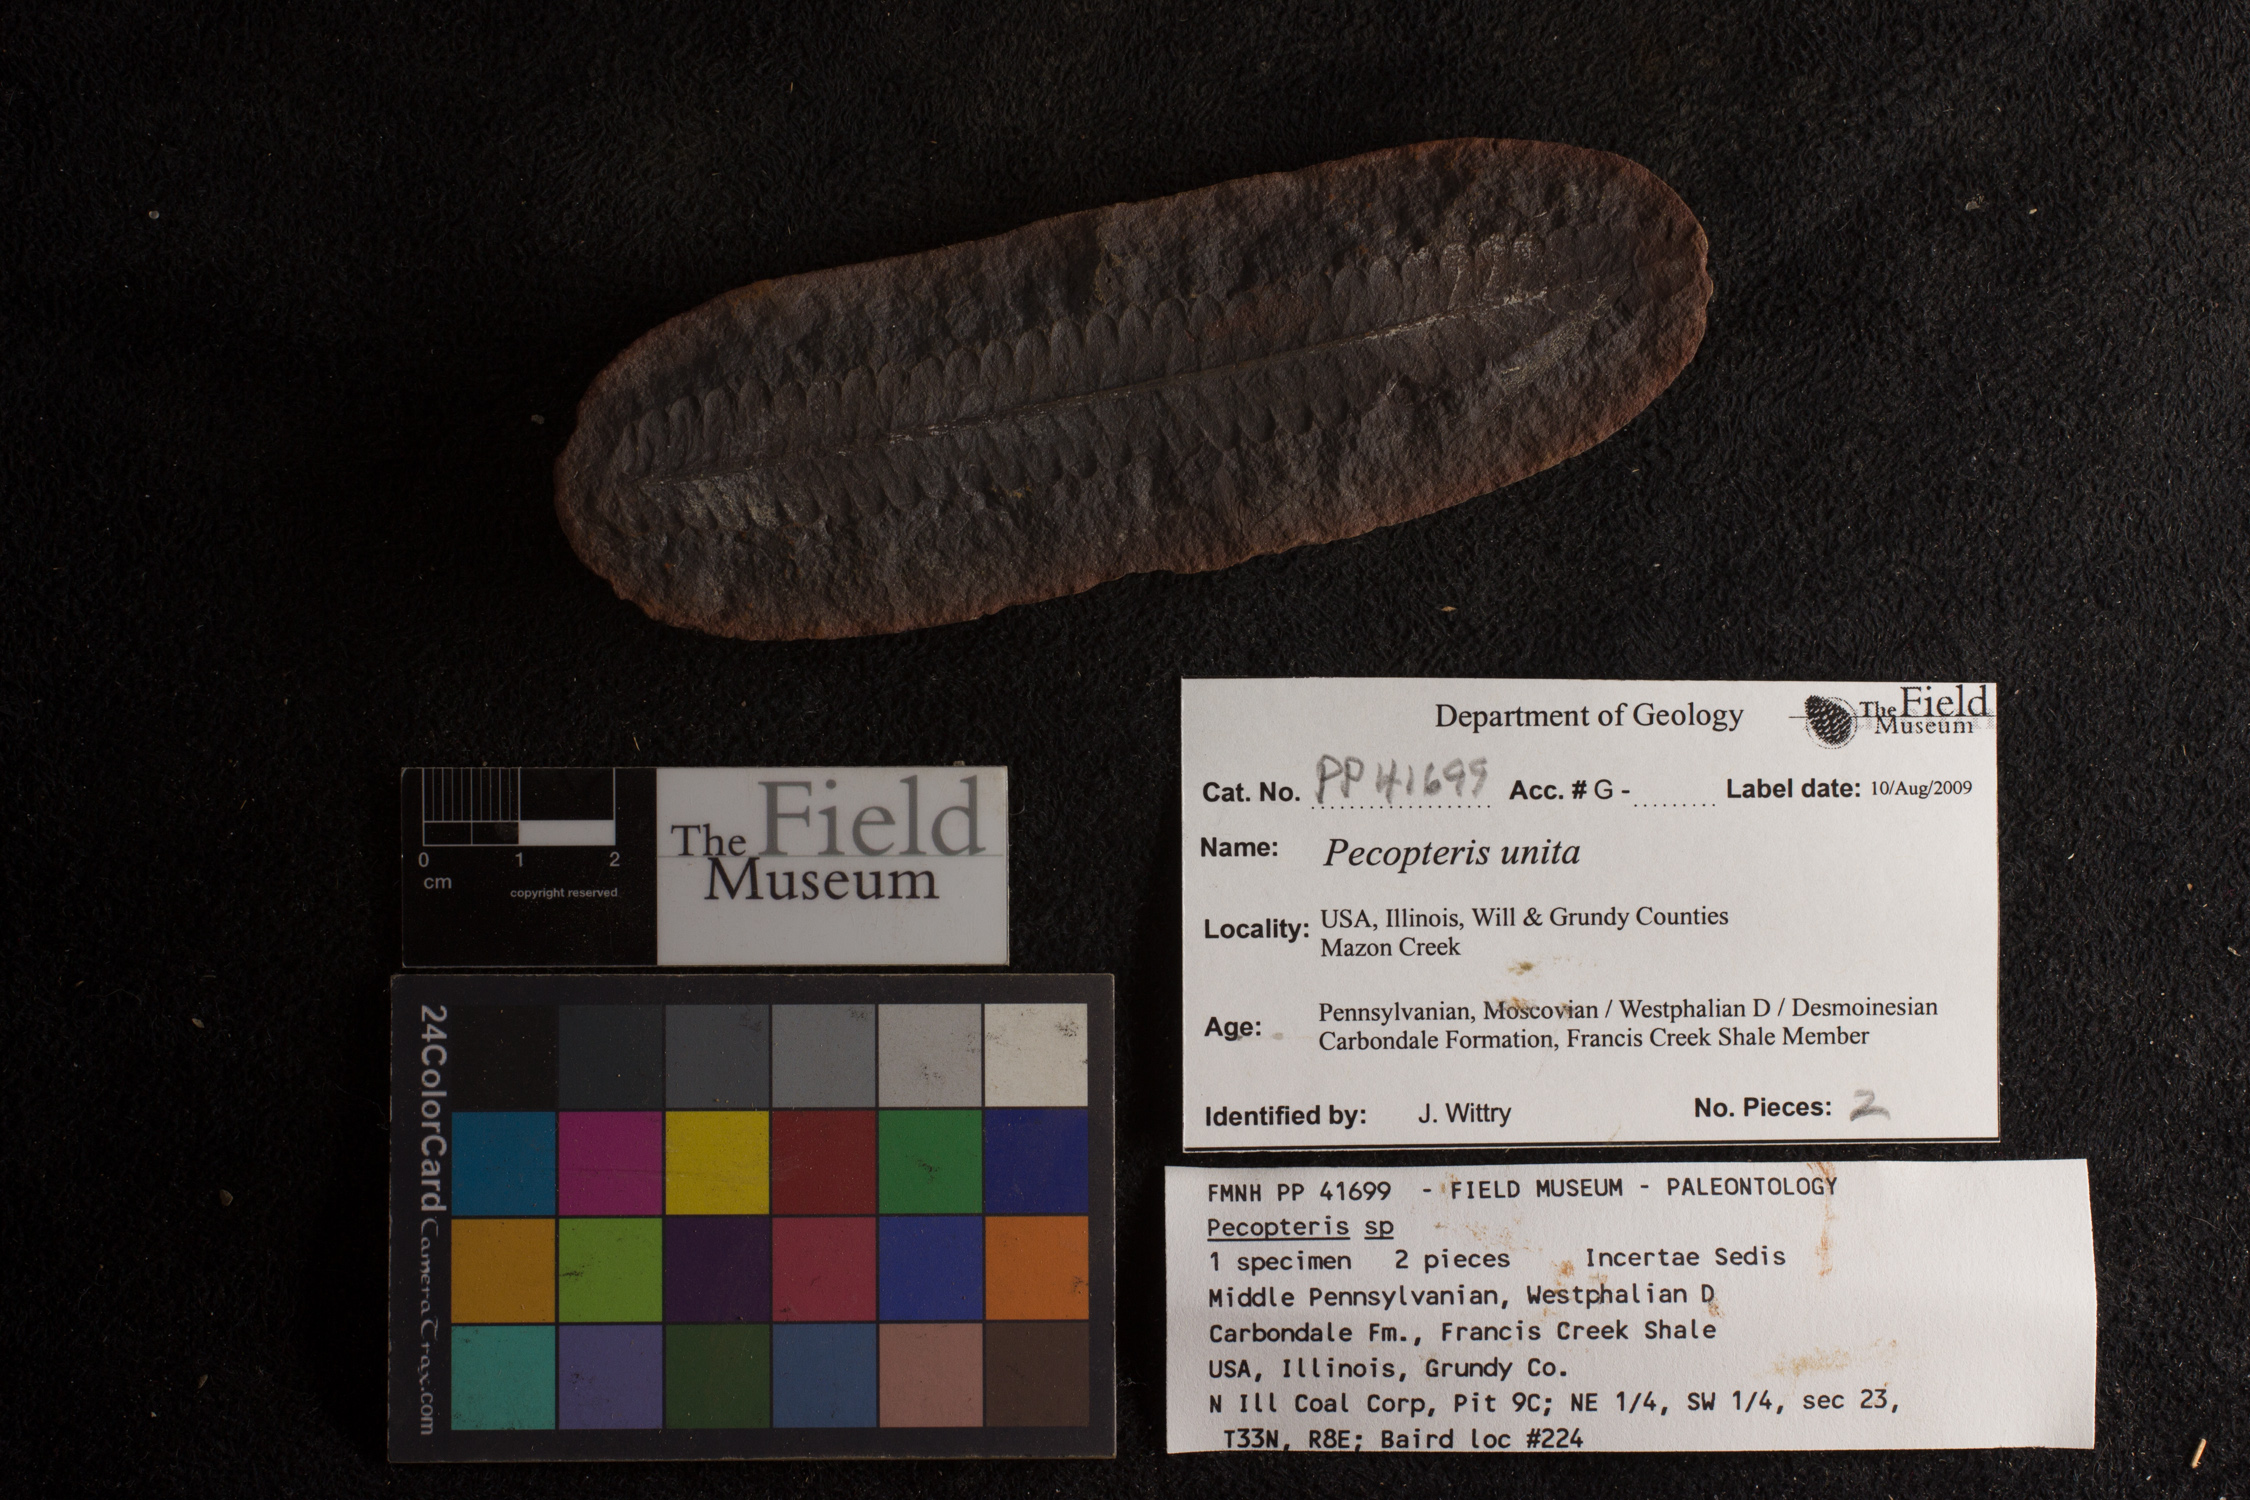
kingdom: Plantae
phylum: Tracheophyta
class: Polypodiopsida
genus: Diplazites
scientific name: Diplazites
